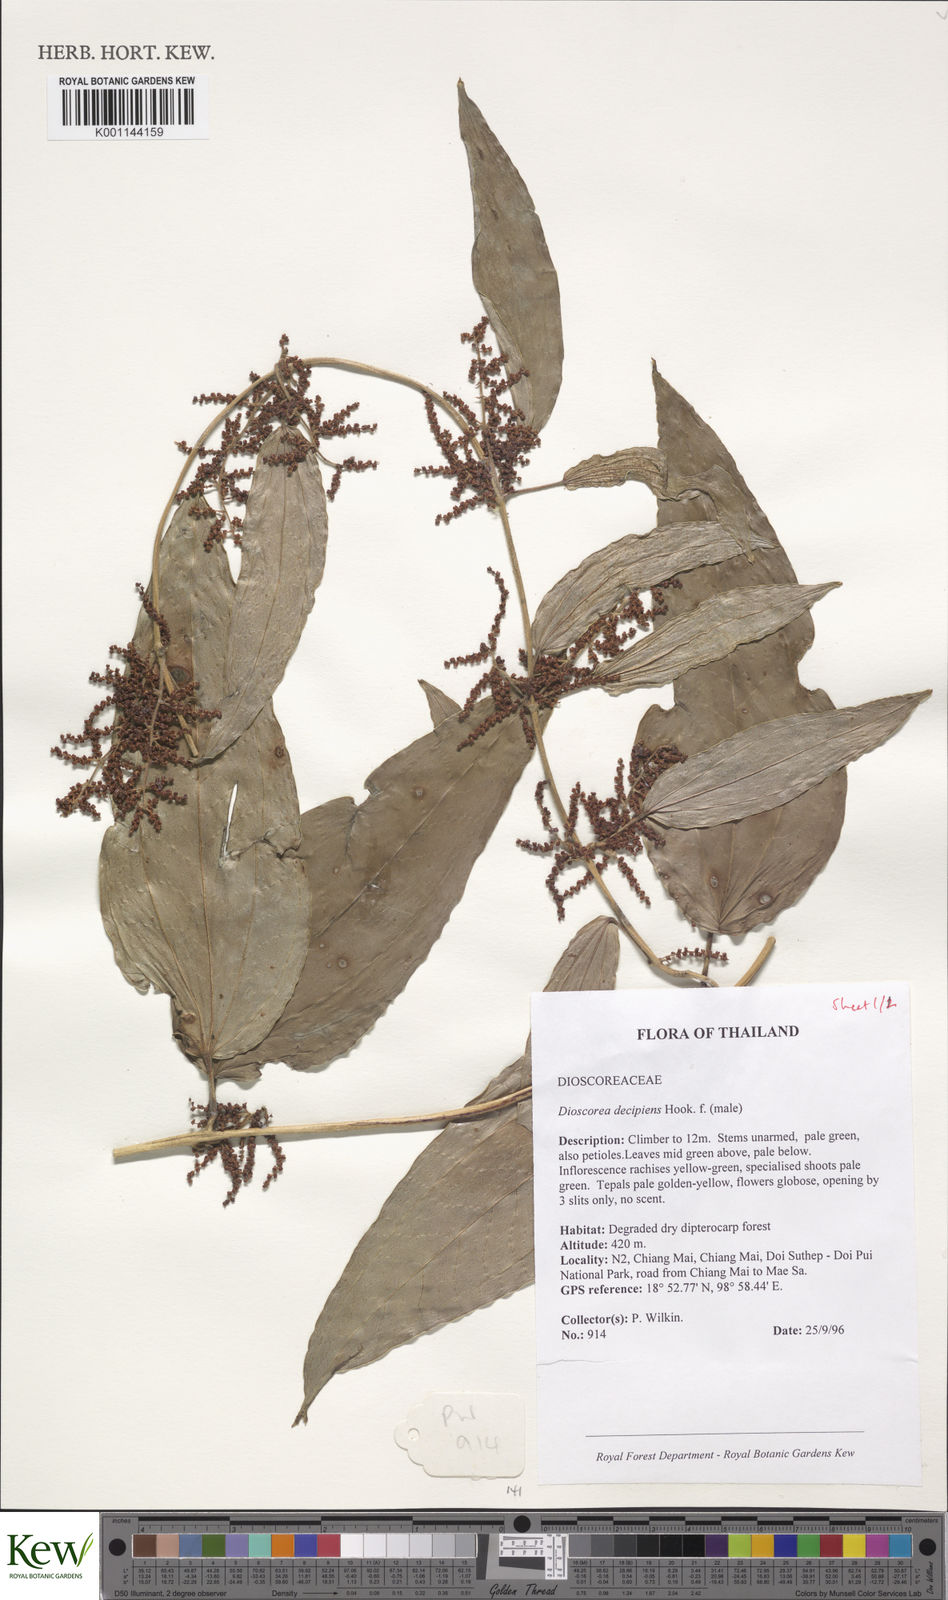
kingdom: Plantae
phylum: Tracheophyta
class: Liliopsida
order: Dioscoreales
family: Dioscoreaceae
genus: Dioscorea
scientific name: Dioscorea decipiens
